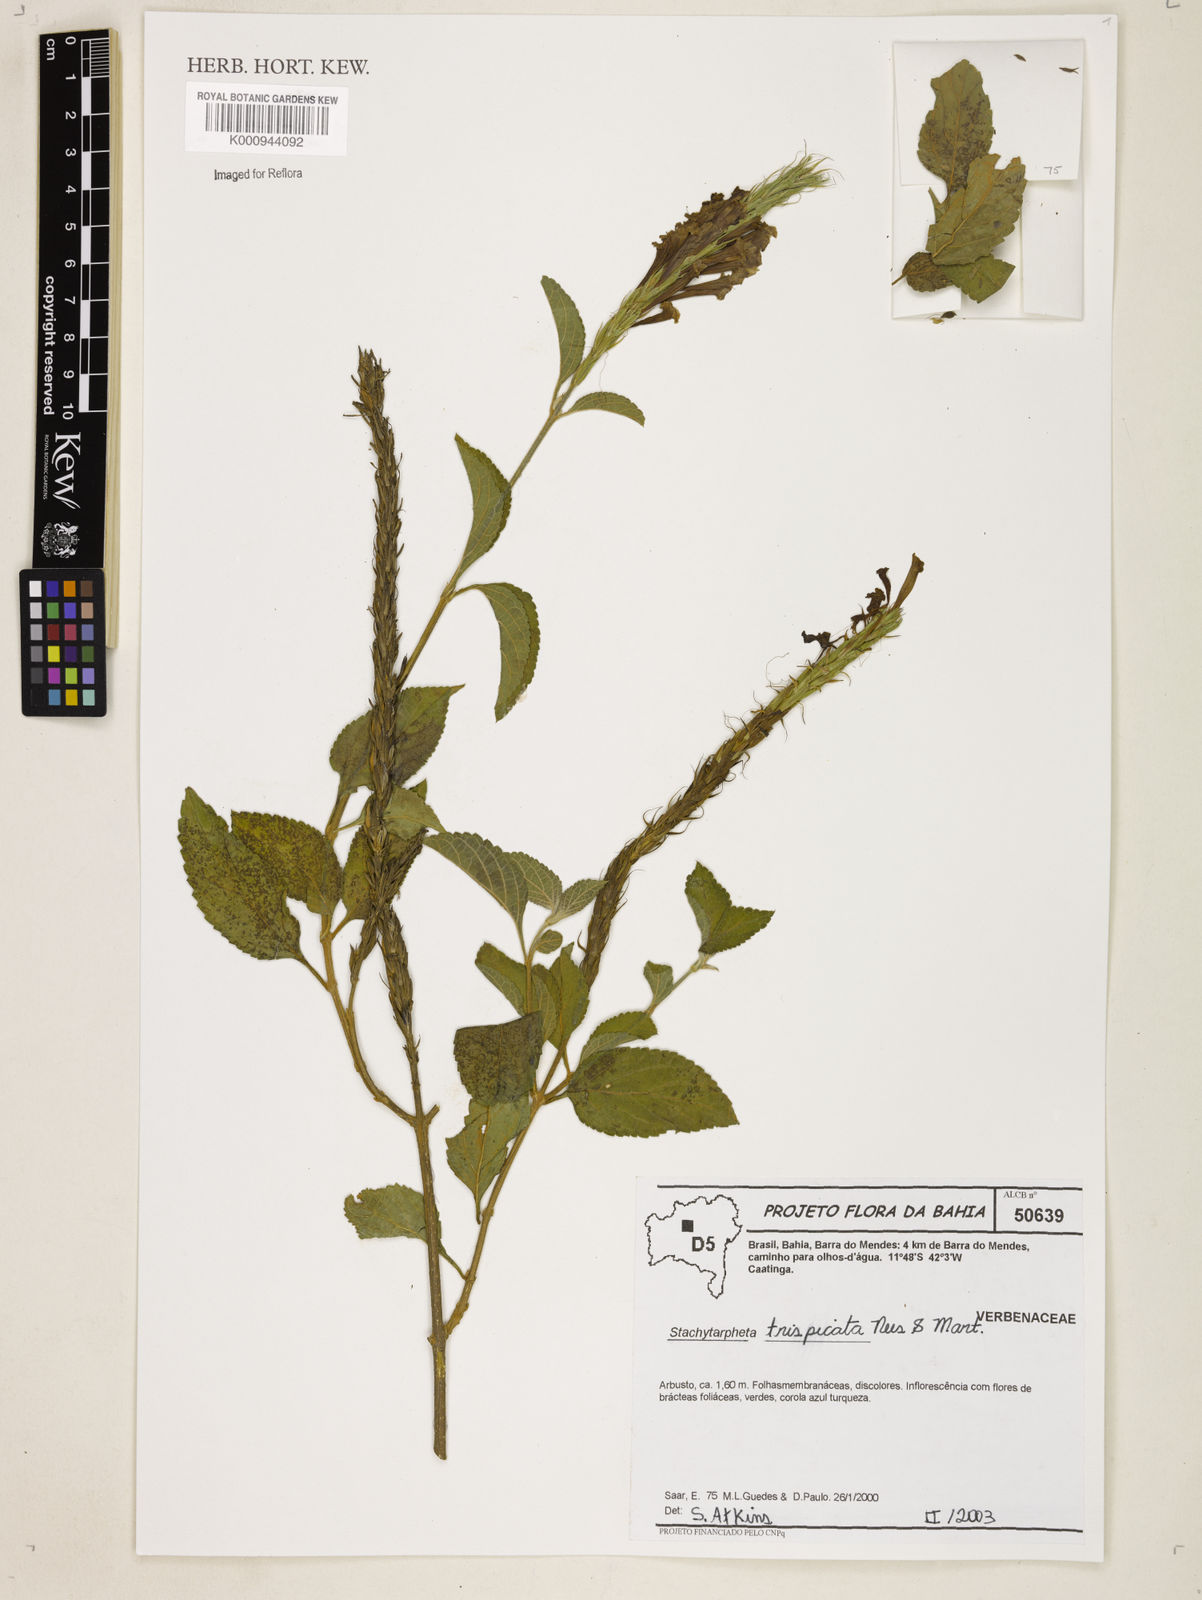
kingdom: Plantae
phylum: Tracheophyta
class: Magnoliopsida
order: Lamiales
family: Verbenaceae
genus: Stachytarpheta
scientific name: Stachytarpheta trispicata
